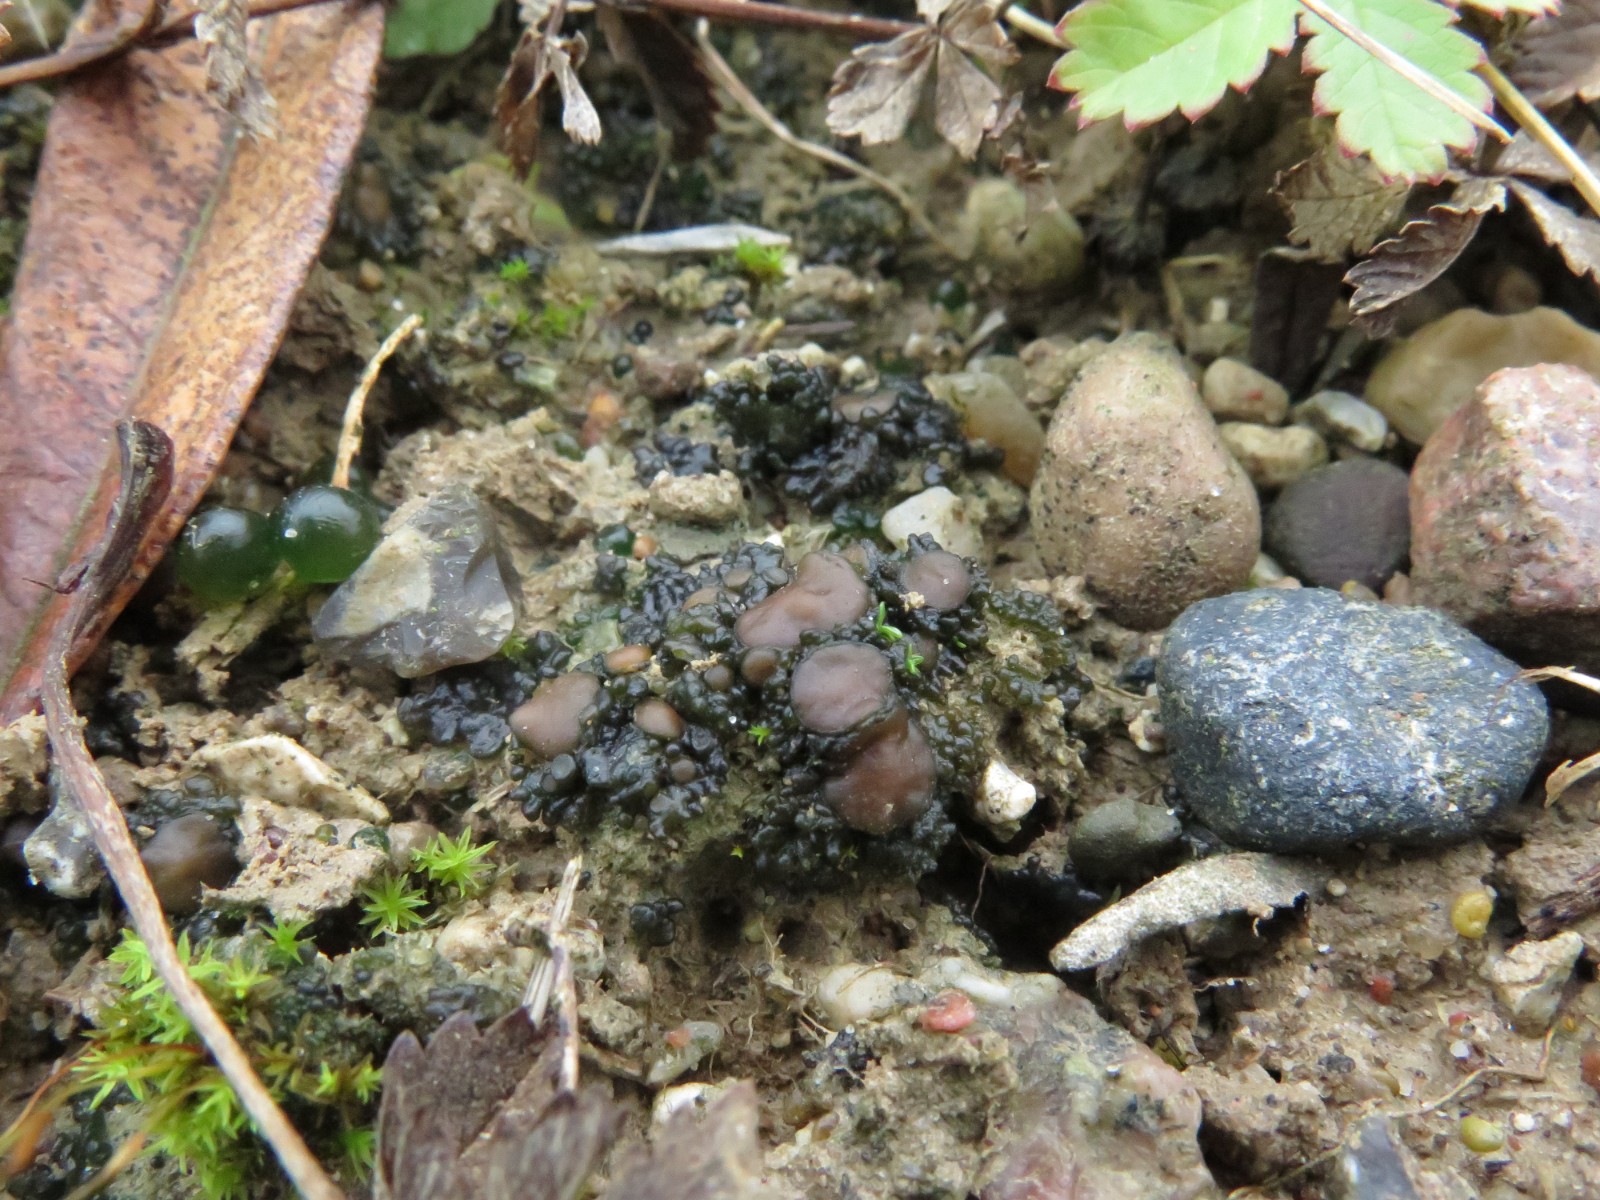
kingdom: Fungi
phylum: Ascomycota
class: Lecanoromycetes
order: Peltigerales
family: Collemataceae
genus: Enchylium
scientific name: Enchylium tenax
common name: tyk bævrelav
